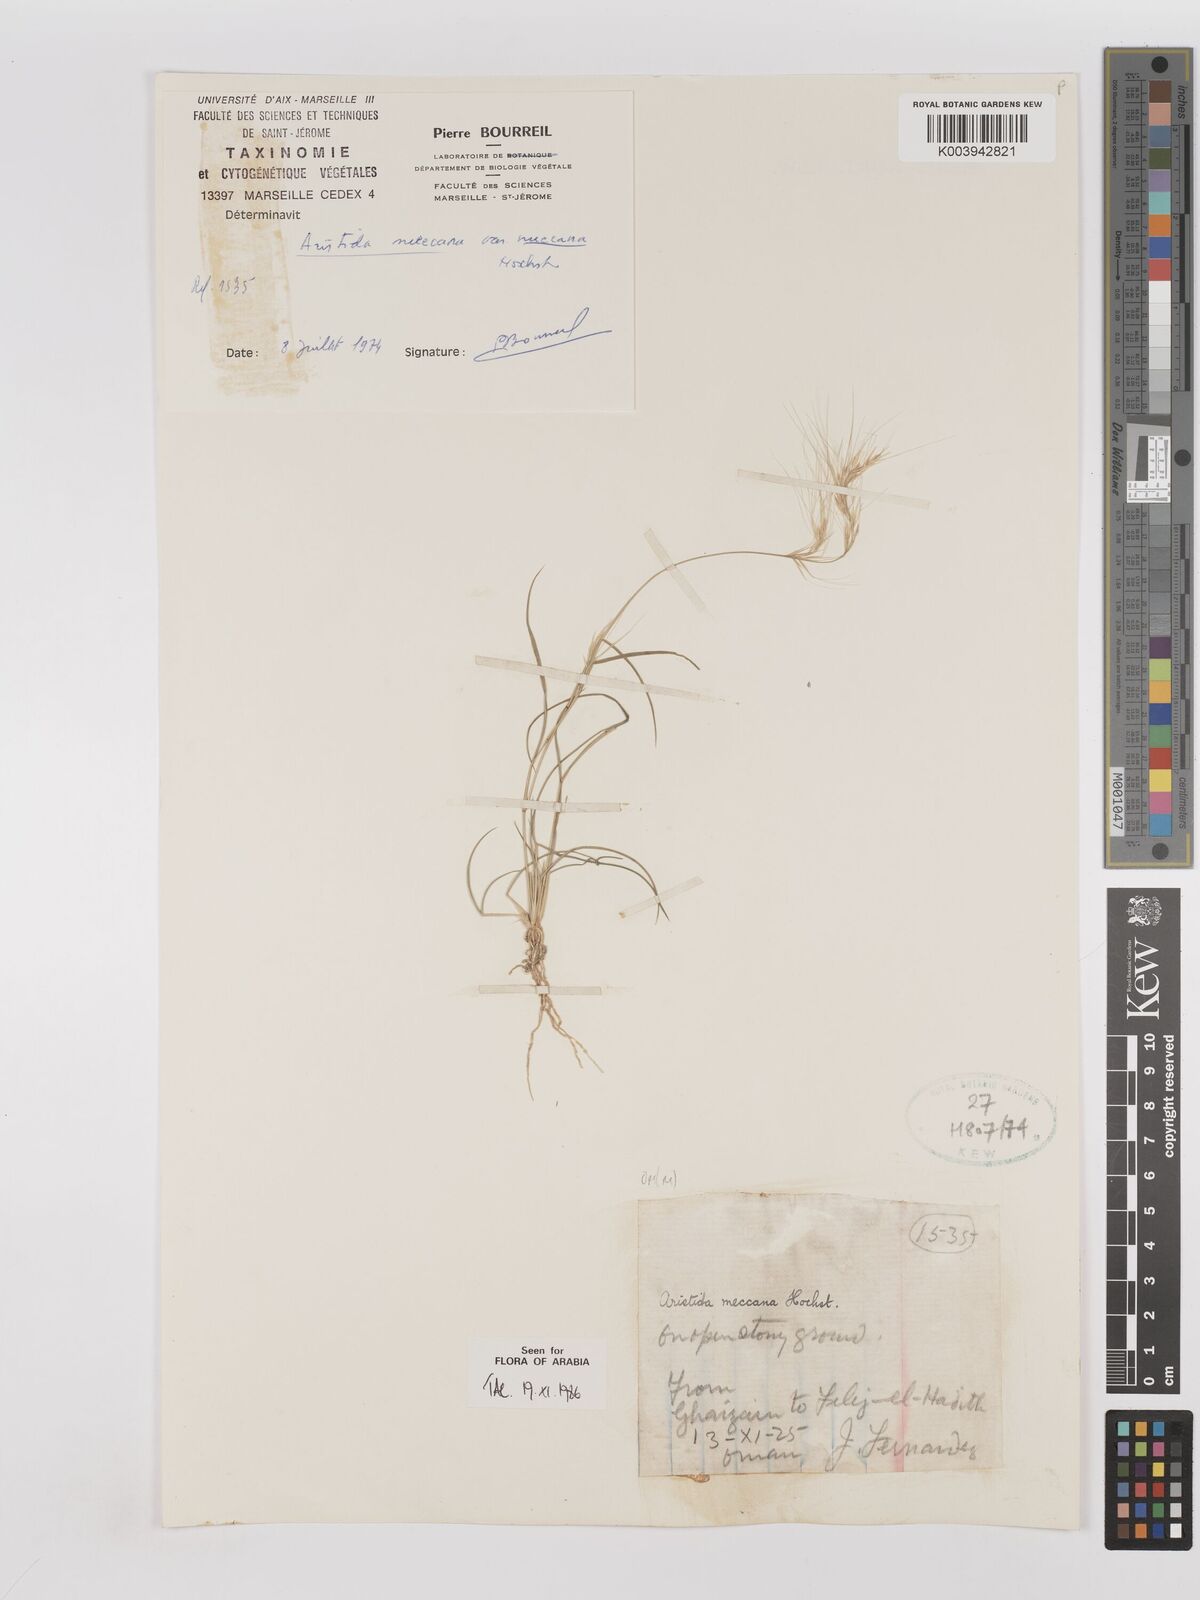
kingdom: Plantae
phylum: Tracheophyta
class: Liliopsida
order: Poales
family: Poaceae
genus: Aristida
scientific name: Aristida mutabilis
